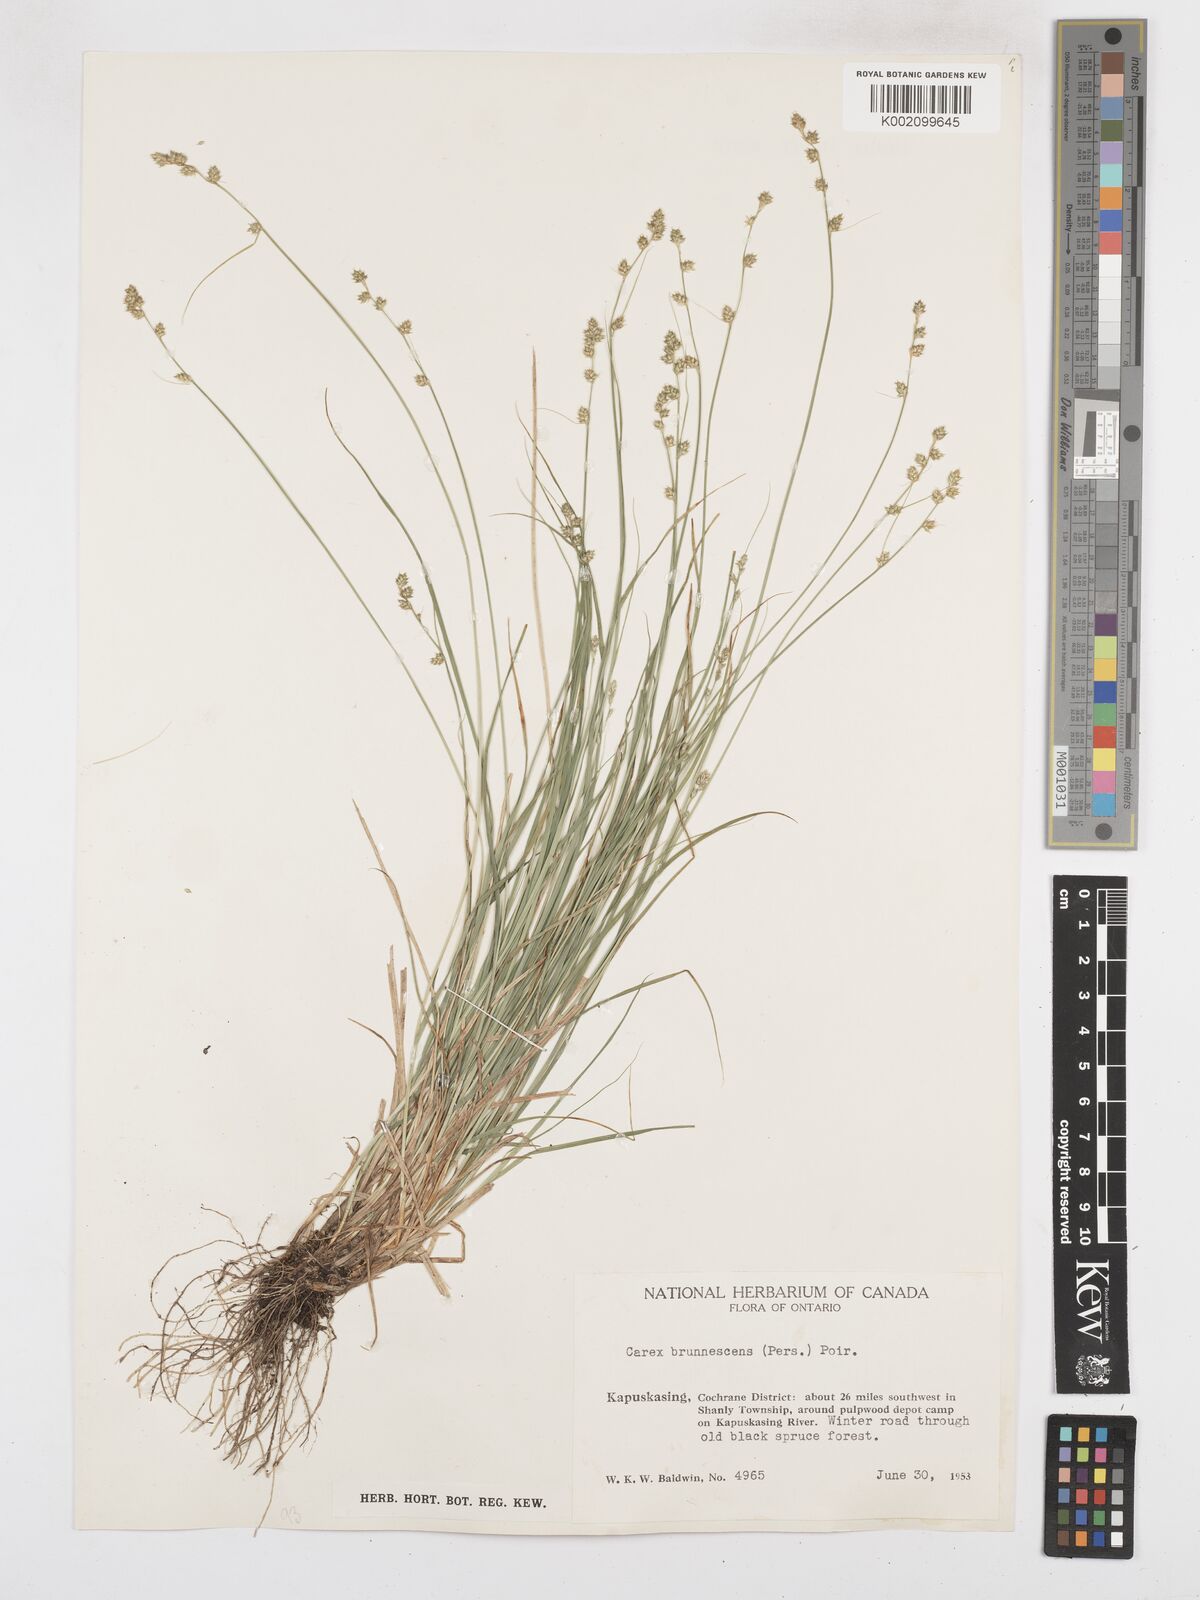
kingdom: Plantae
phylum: Tracheophyta
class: Liliopsida
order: Poales
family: Cyperaceae
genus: Carex
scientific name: Carex brunnescens
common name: Brown sedge
